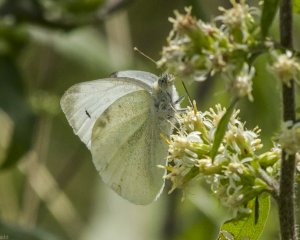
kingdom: Animalia
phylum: Arthropoda
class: Insecta
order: Lepidoptera
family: Pieridae
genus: Pieris
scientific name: Pieris rapae
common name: Cabbage White
